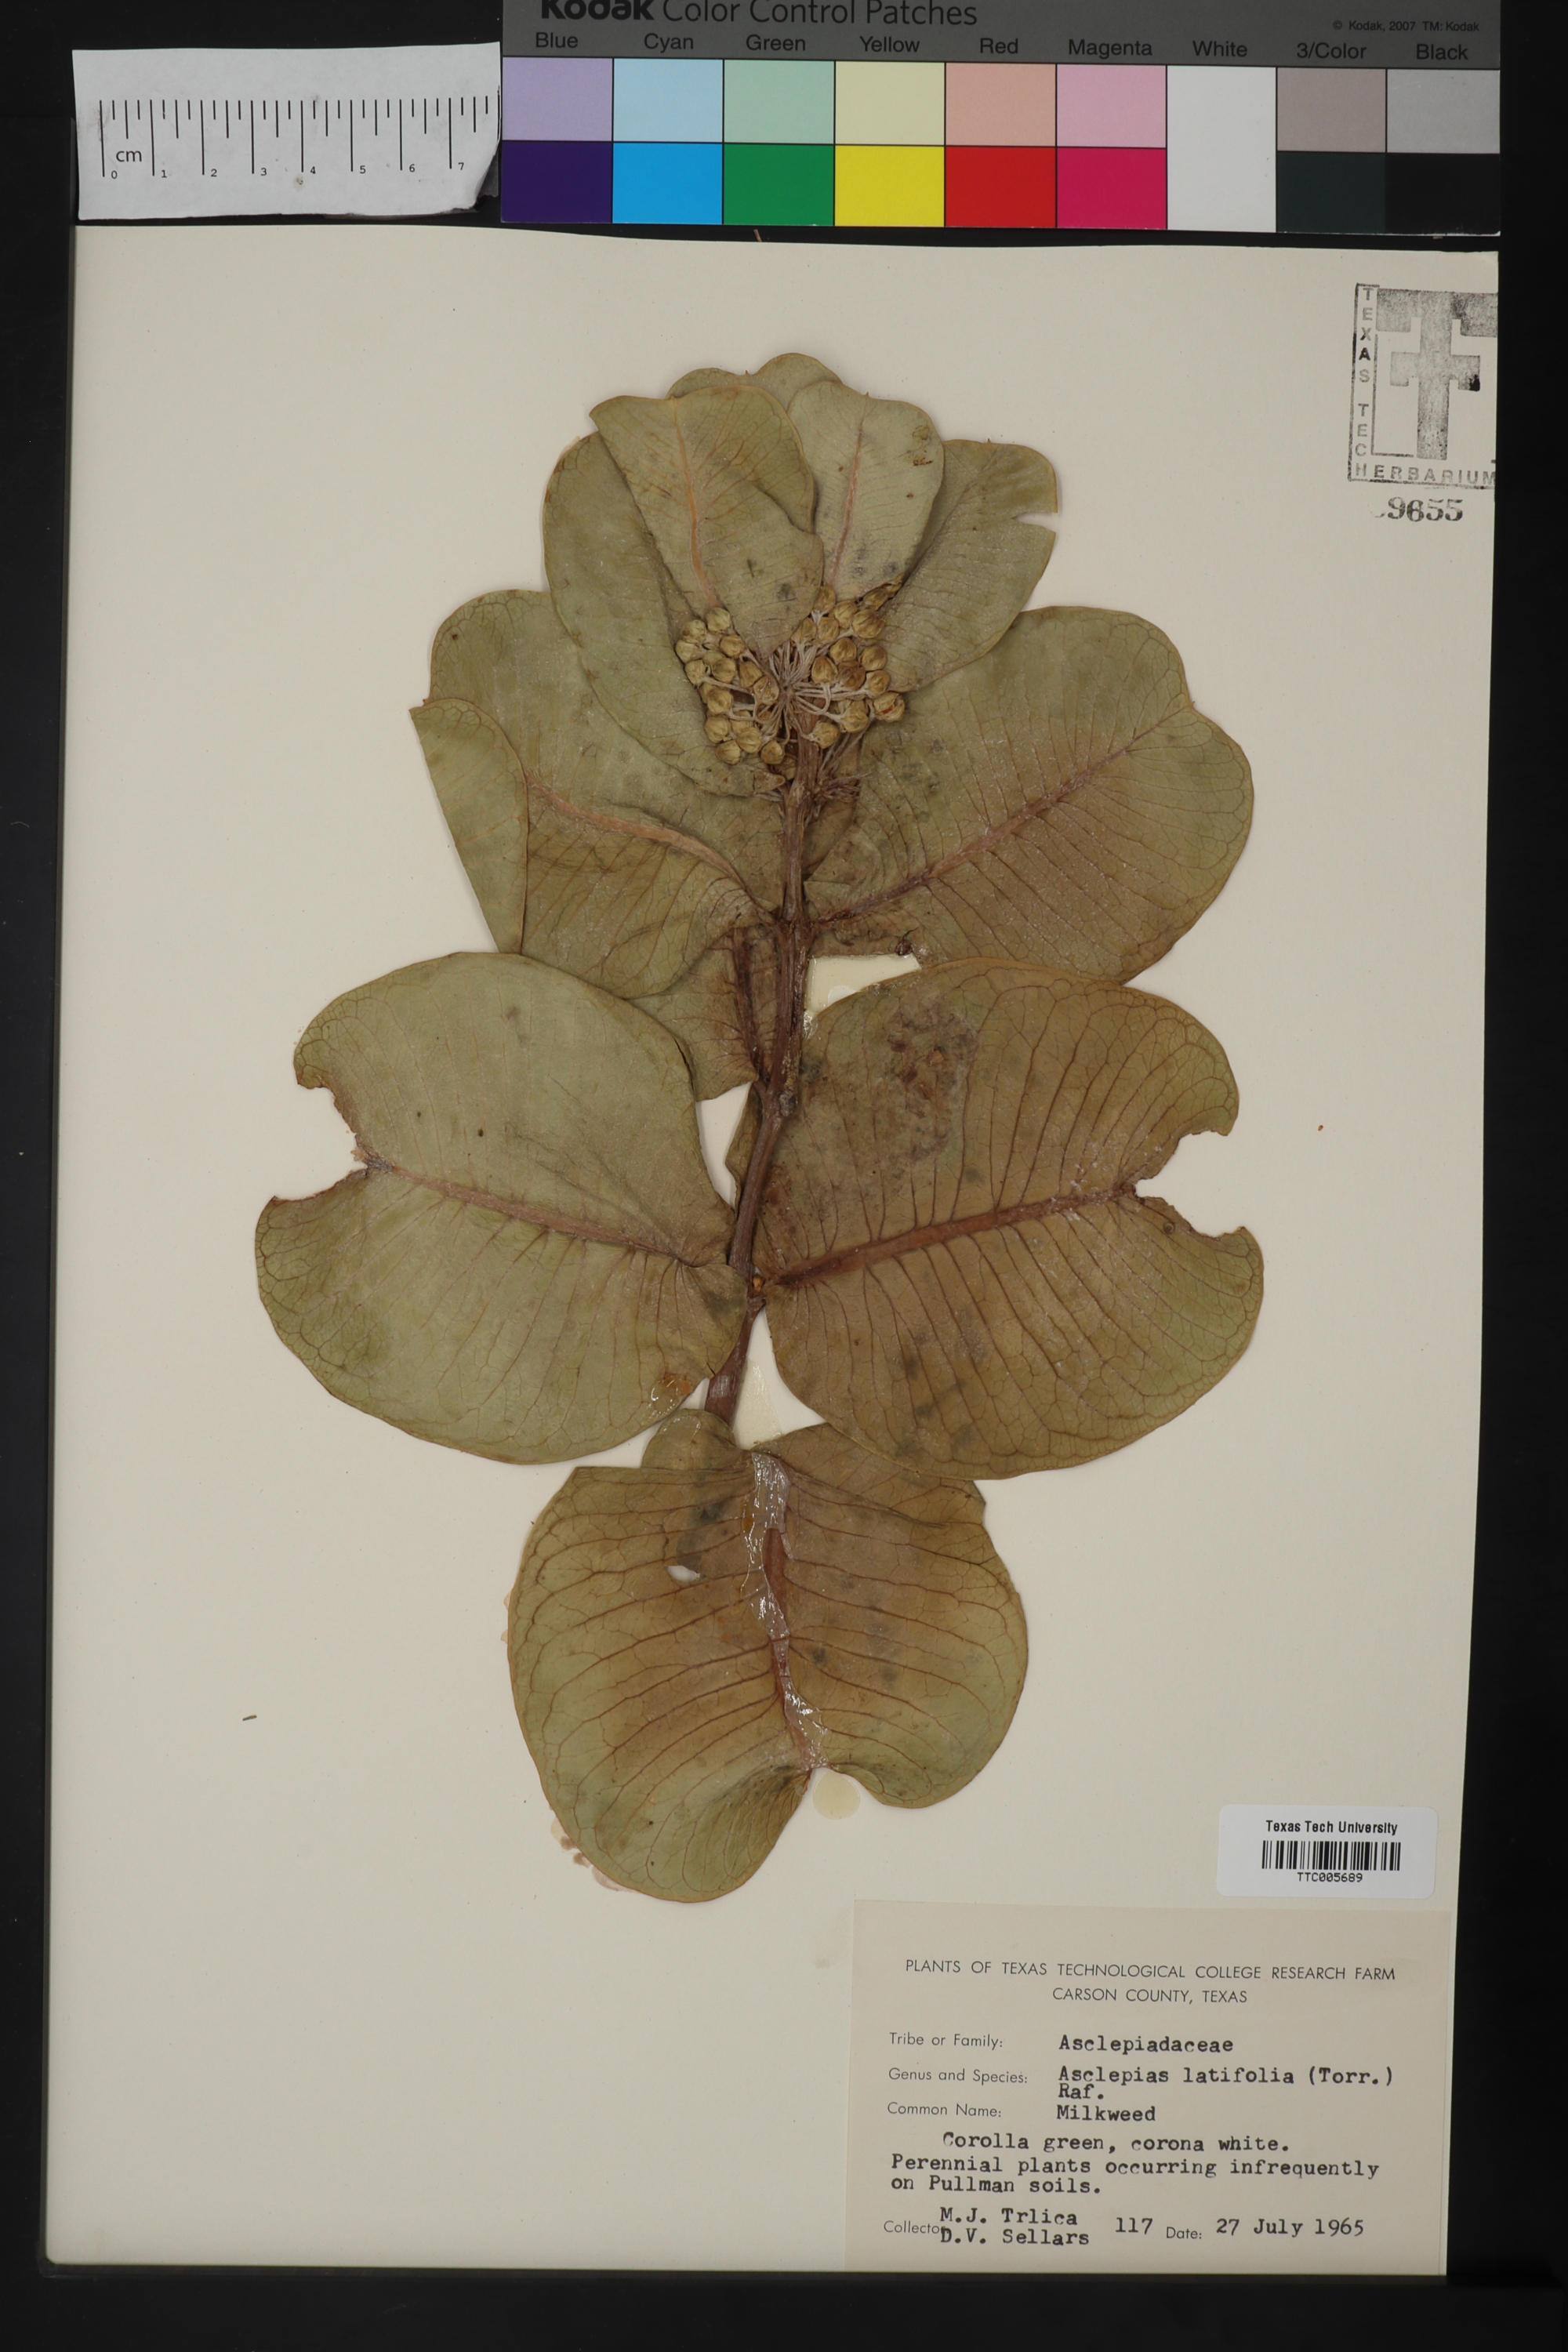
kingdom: Plantae
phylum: Tracheophyta
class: Magnoliopsida
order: Gentianales
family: Apocynaceae
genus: Asclepias
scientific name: Asclepias latifolia
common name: Broadleaf milkweed
